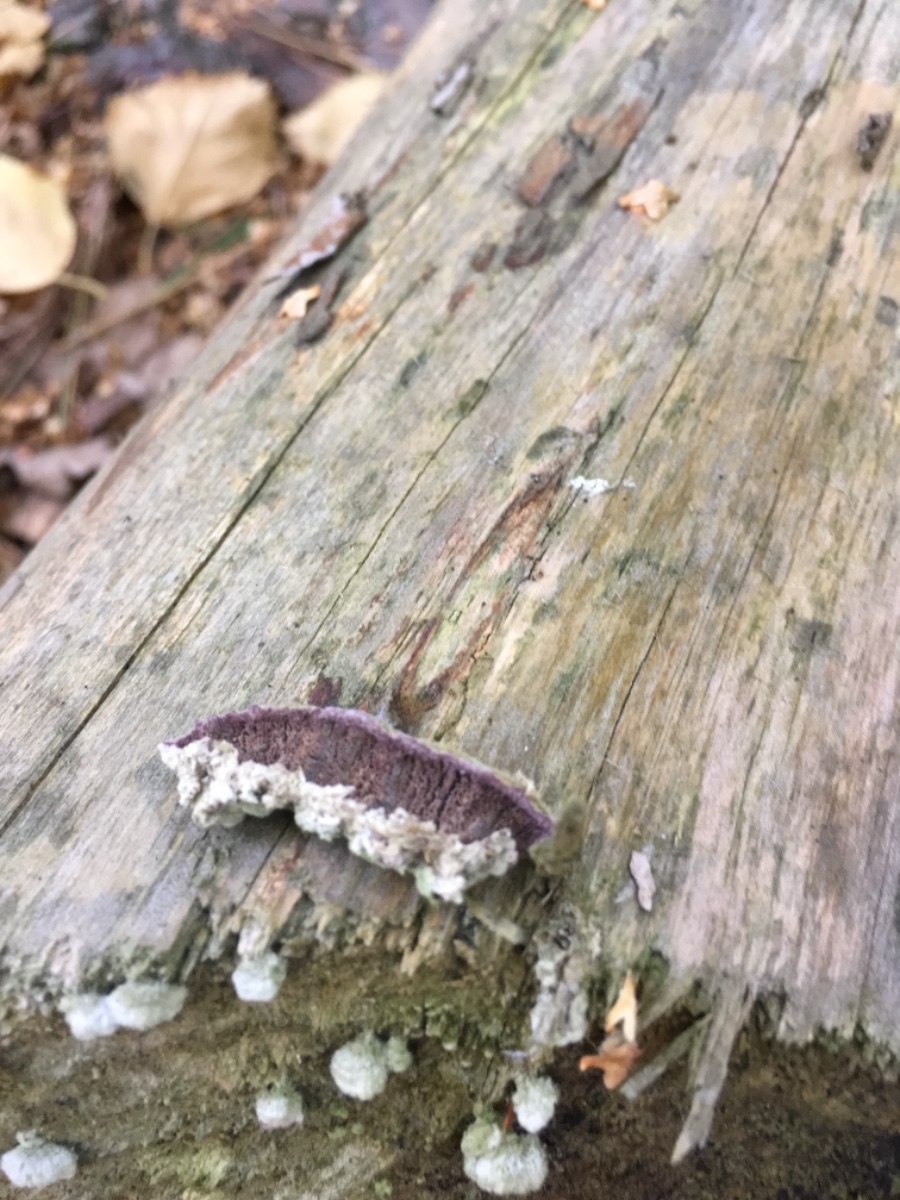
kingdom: Fungi
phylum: Basidiomycota
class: Agaricomycetes
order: Hymenochaetales
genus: Trichaptum
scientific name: Trichaptum abietinum
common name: almindelig violporesvamp
